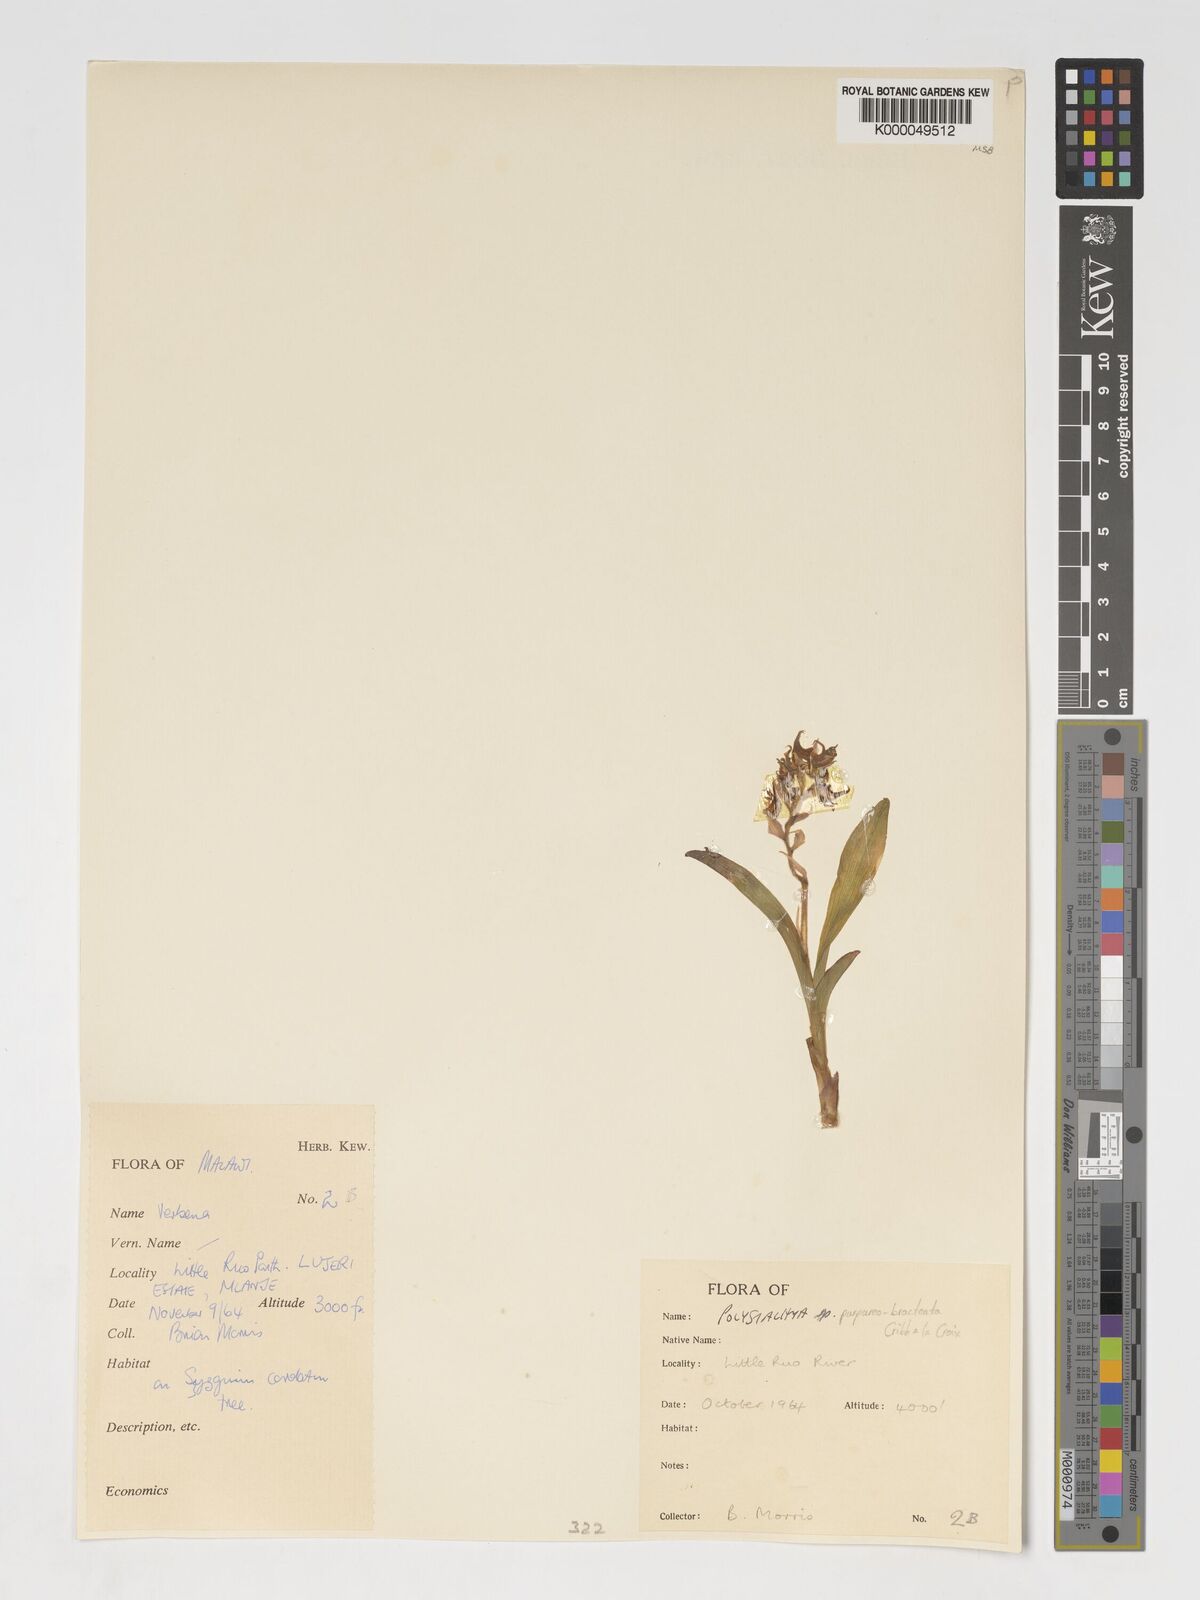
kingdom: Plantae
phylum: Tracheophyta
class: Liliopsida
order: Asparagales
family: Orchidaceae
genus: Polystachya
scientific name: Polystachya purpureobracteata
